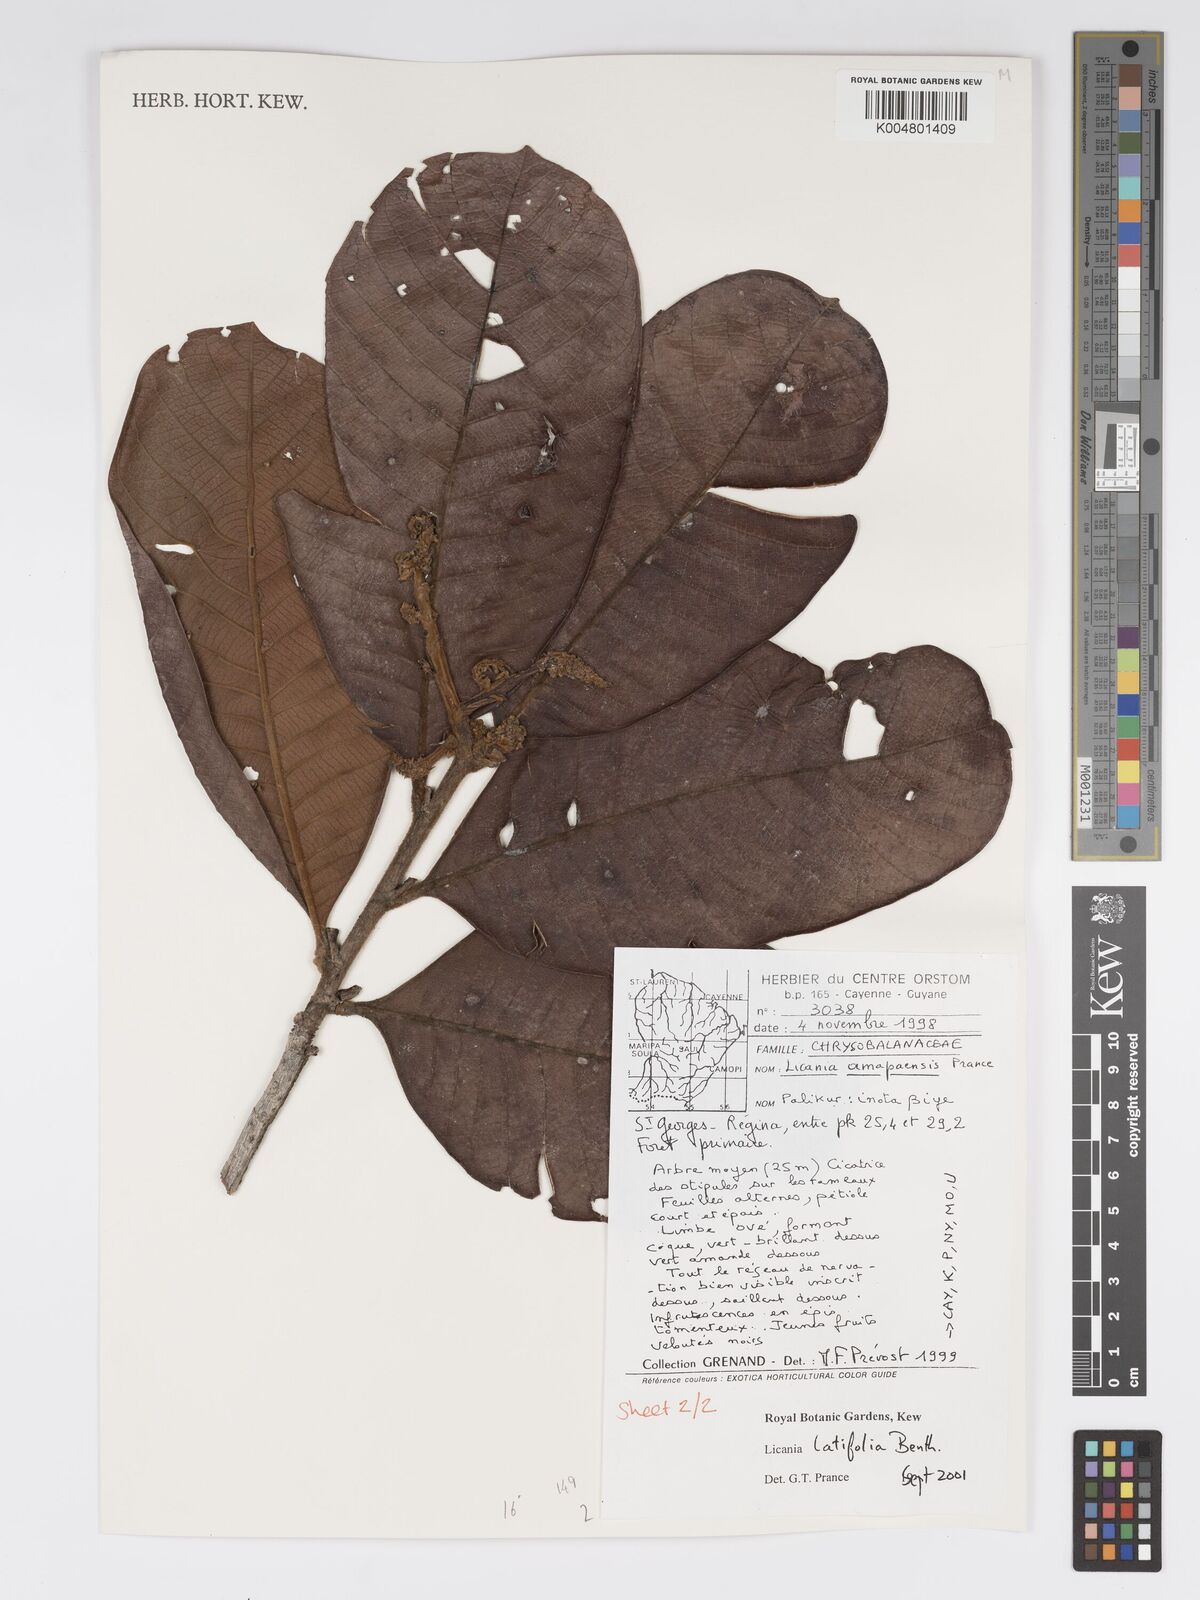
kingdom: Plantae
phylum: Tracheophyta
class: Magnoliopsida
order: Malpighiales
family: Chrysobalanaceae
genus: Hymenopus
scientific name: Hymenopus latifolius
